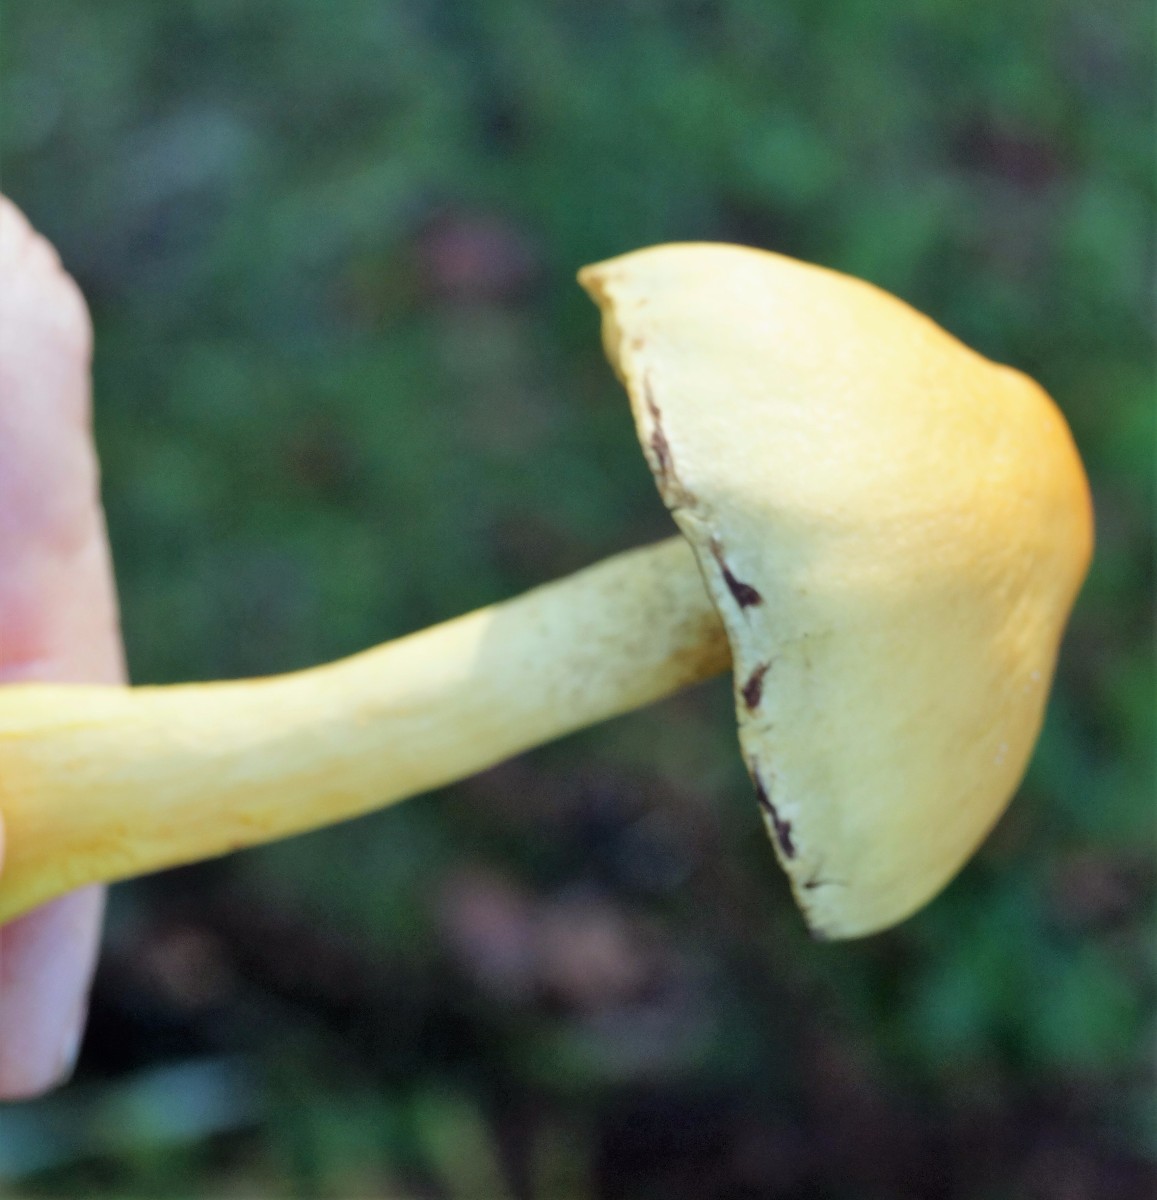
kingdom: Fungi
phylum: Basidiomycota
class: Agaricomycetes
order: Agaricales
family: Strophariaceae
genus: Hypholoma
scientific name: Hypholoma fasciculare
